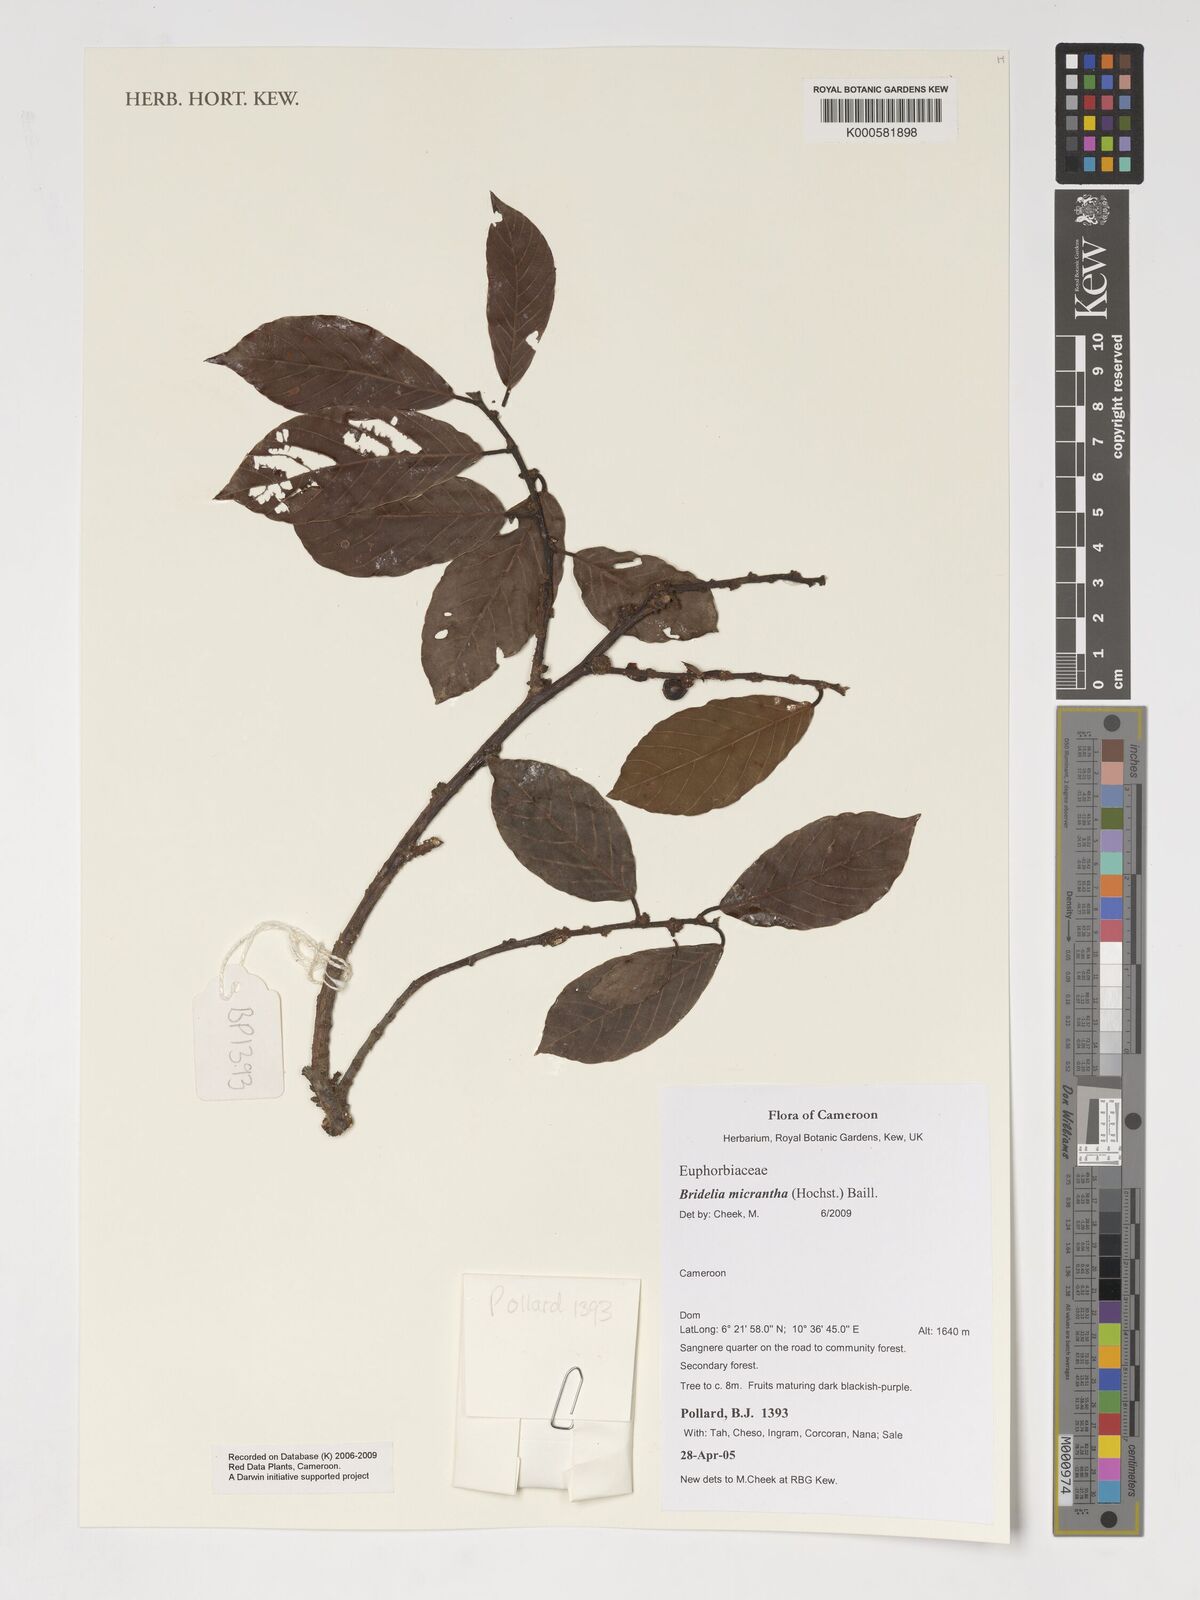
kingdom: Plantae
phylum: Tracheophyta
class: Magnoliopsida
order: Malpighiales
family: Phyllanthaceae
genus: Bridelia
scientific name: Bridelia micrantha
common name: Bridelia
